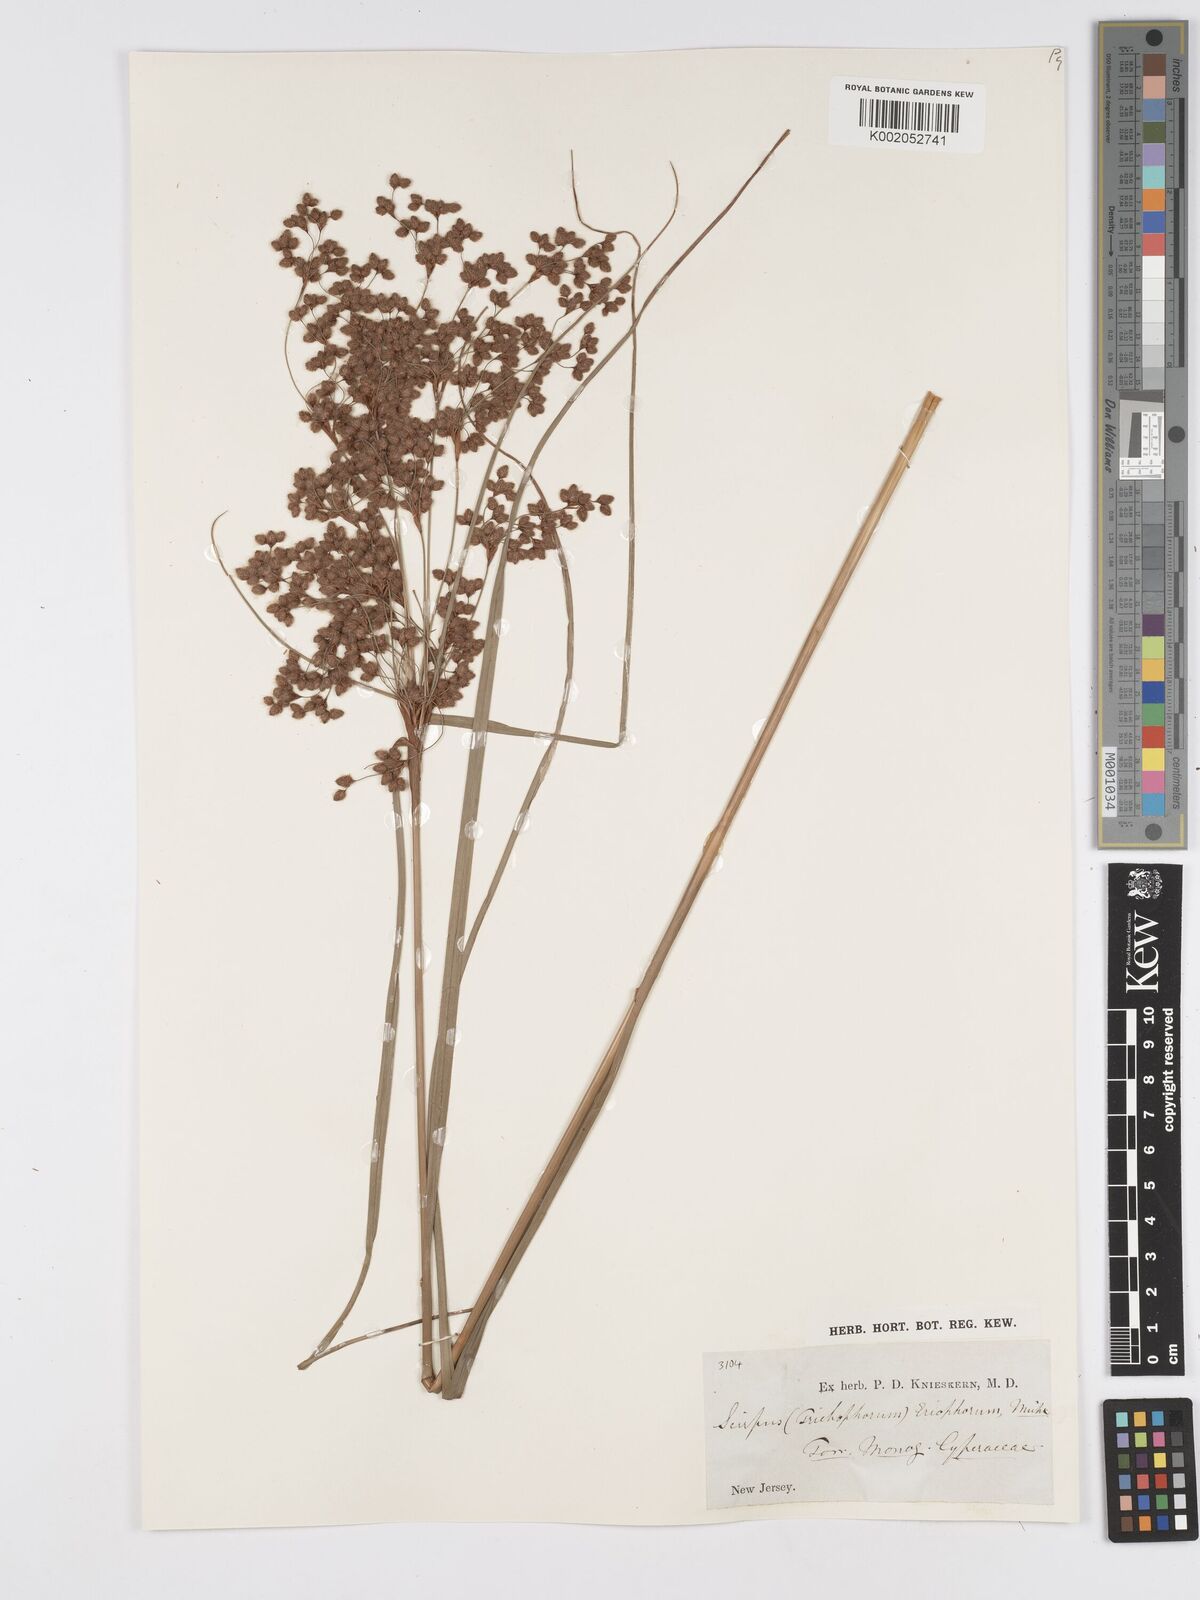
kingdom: Plantae
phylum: Tracheophyta
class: Liliopsida
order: Poales
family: Cyperaceae
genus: Scirpus
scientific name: Scirpus cyperinus
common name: Black-sheathed bulrush
